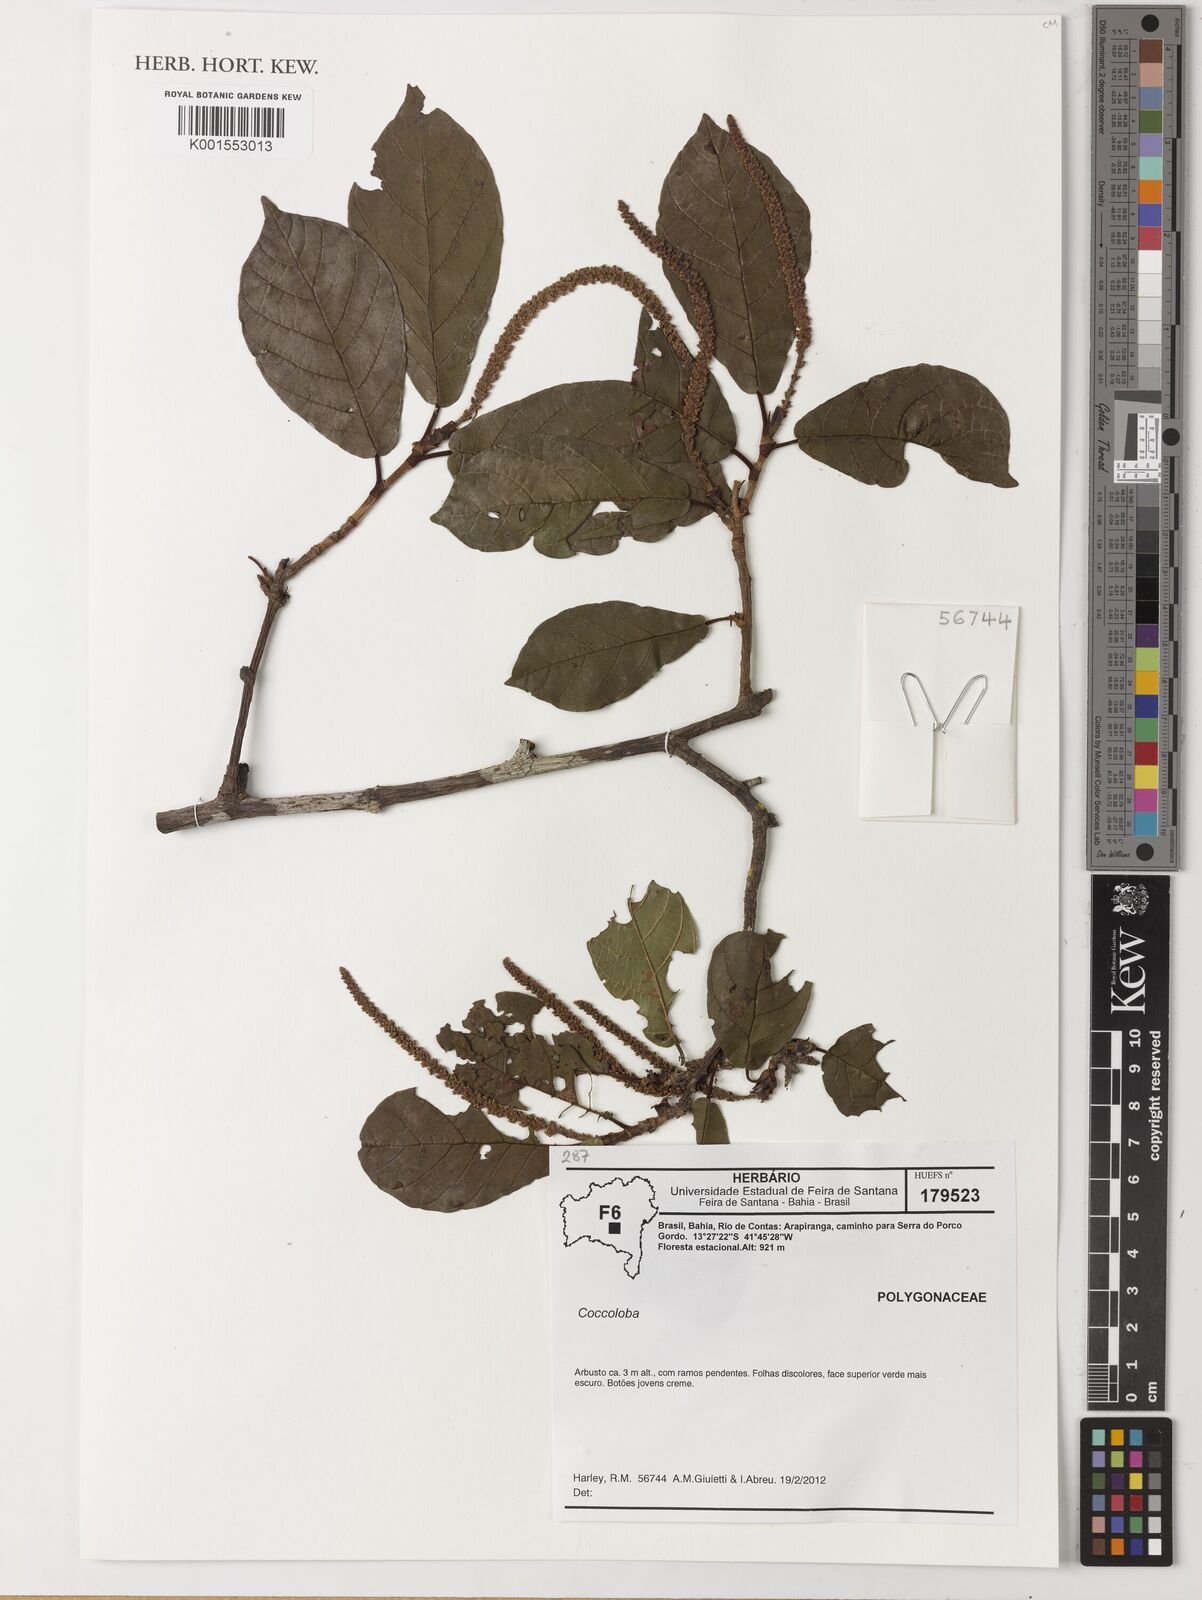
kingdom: Plantae
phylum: Tracheophyta
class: Magnoliopsida
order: Caryophyllales
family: Polygonaceae
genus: Coccoloba
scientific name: Coccoloba
